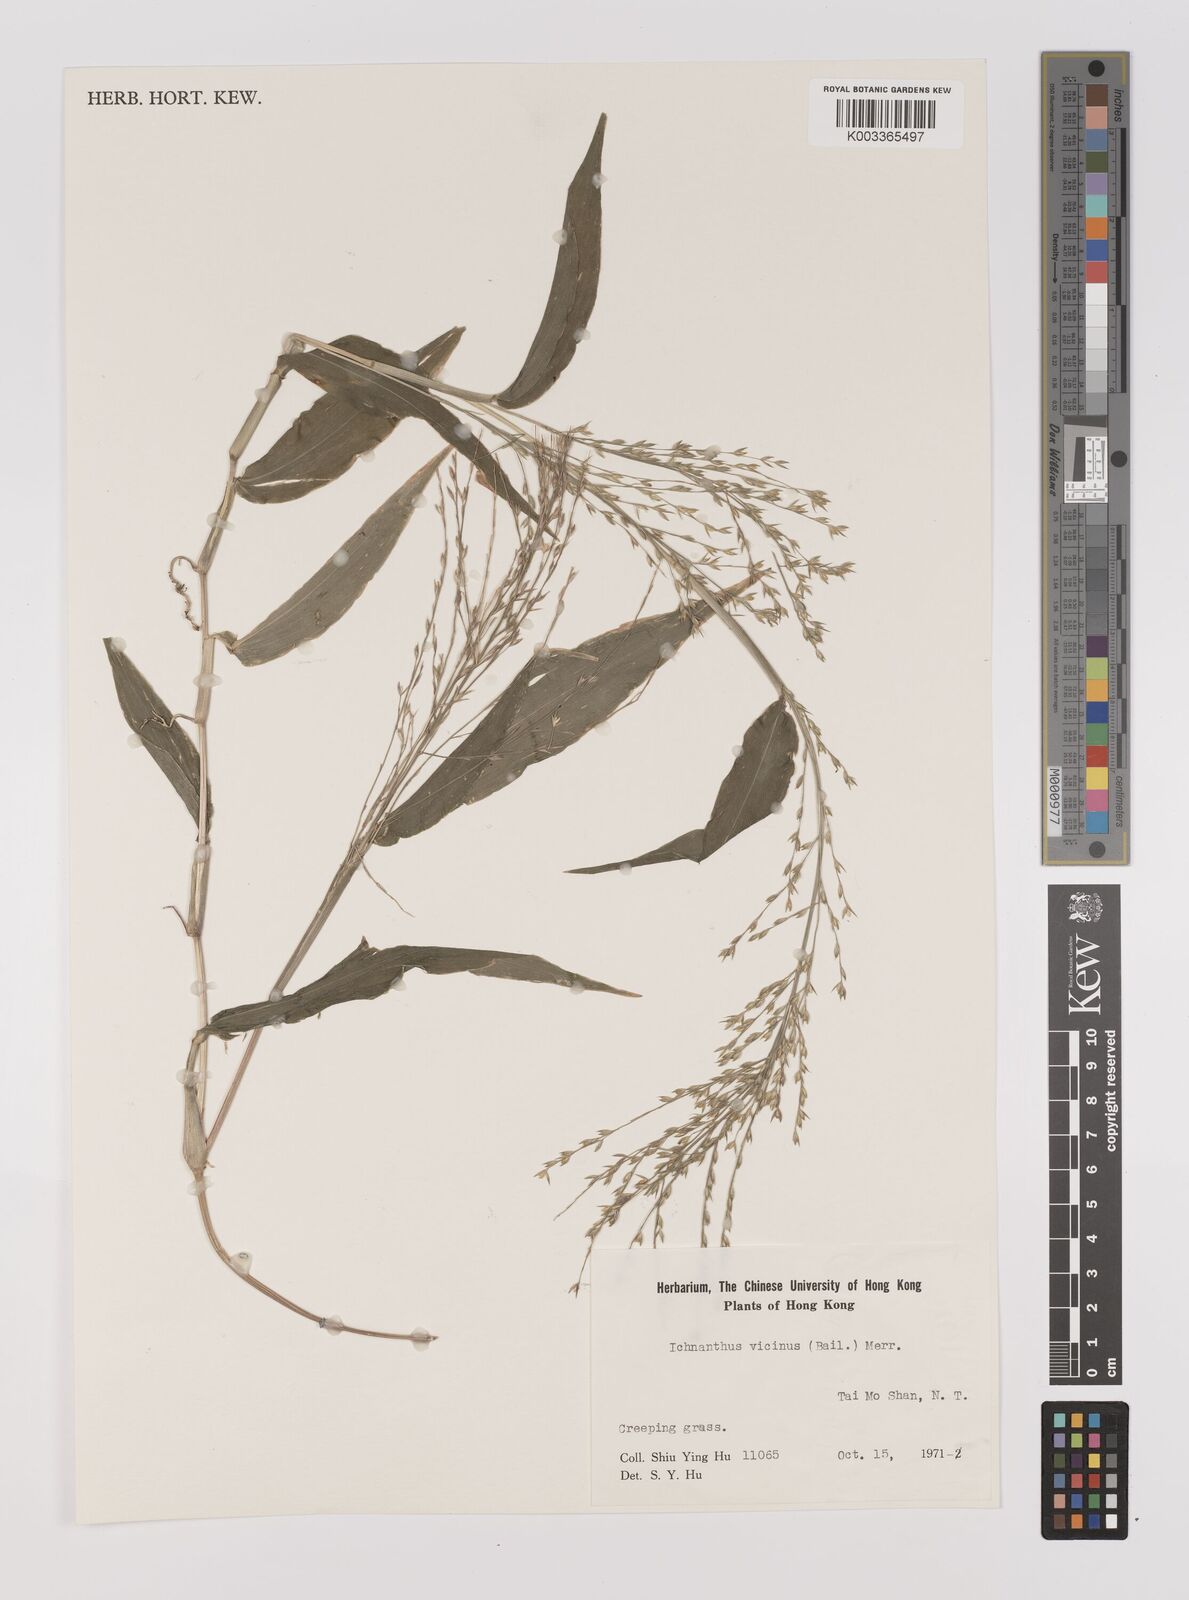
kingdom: Plantae
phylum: Tracheophyta
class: Liliopsida
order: Poales
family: Poaceae
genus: Ichnanthus
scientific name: Ichnanthus pallens
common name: Water grass
